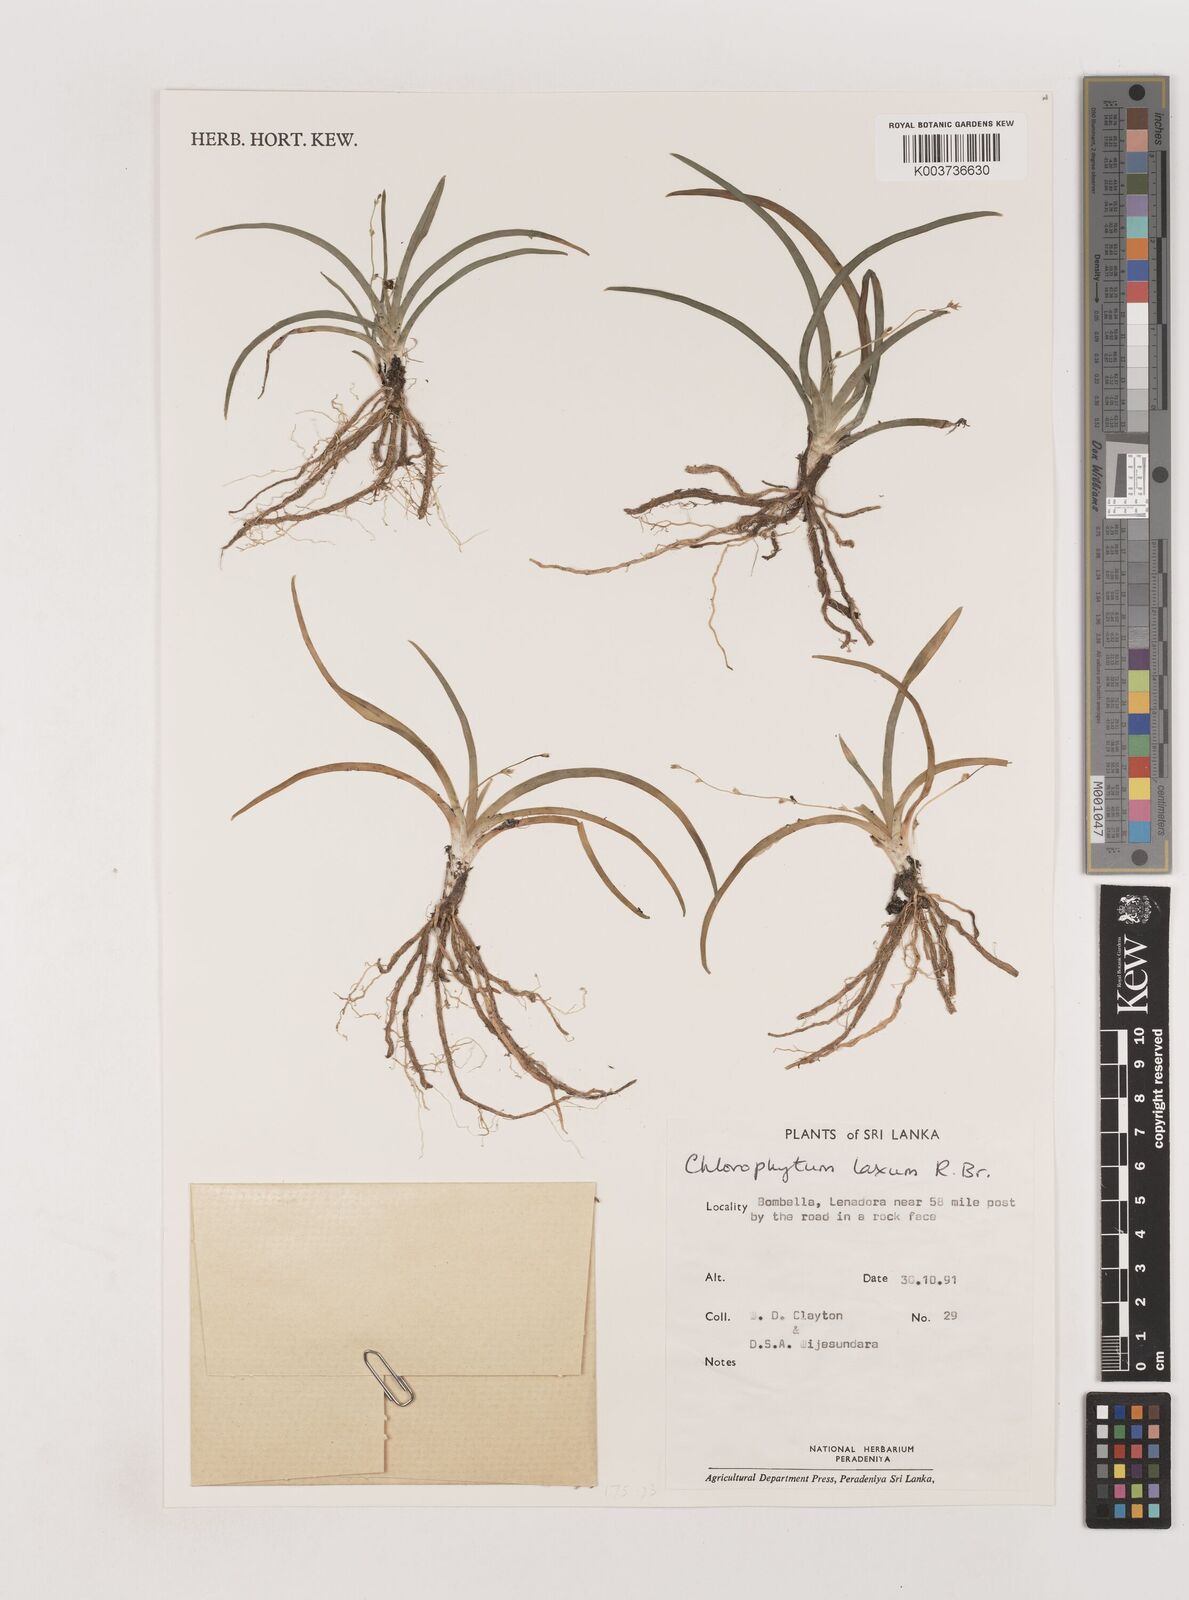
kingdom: Plantae
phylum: Tracheophyta
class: Liliopsida
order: Asparagales
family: Asparagaceae
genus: Chlorophytum
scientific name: Chlorophytum laxum
